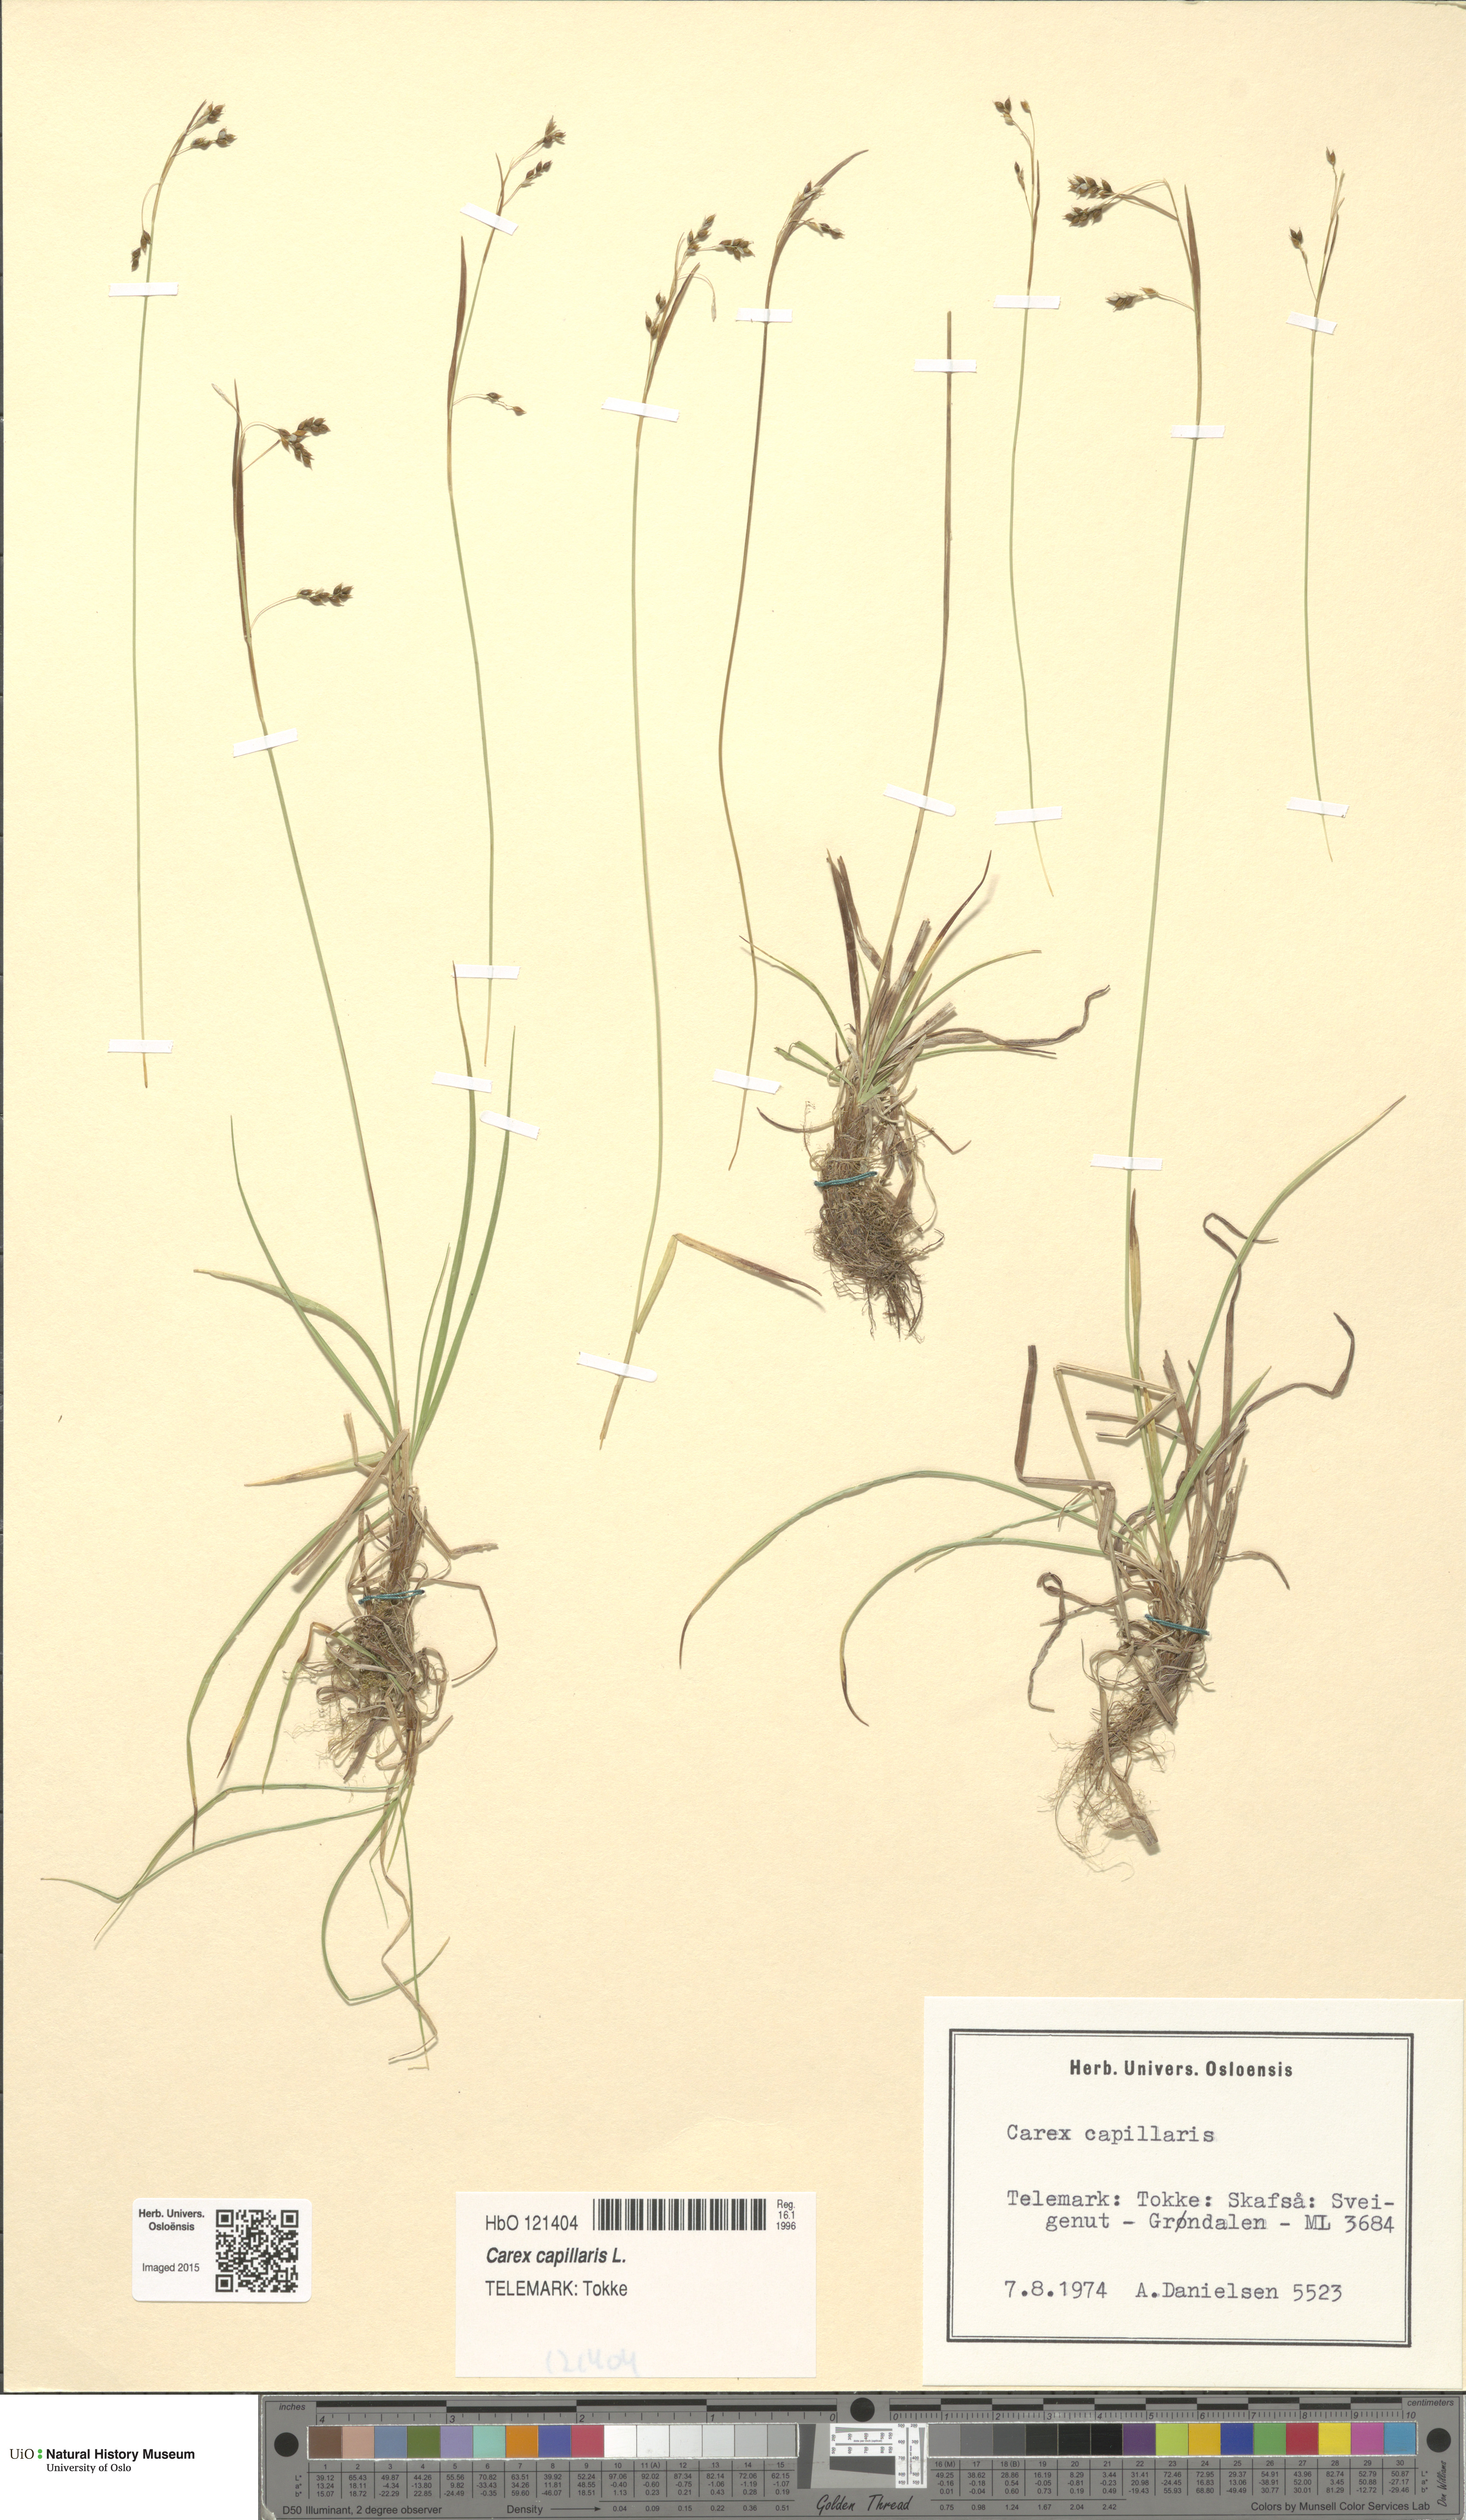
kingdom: Plantae
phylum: Tracheophyta
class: Liliopsida
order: Poales
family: Cyperaceae
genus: Carex
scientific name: Carex capillaris
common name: Hair sedge
